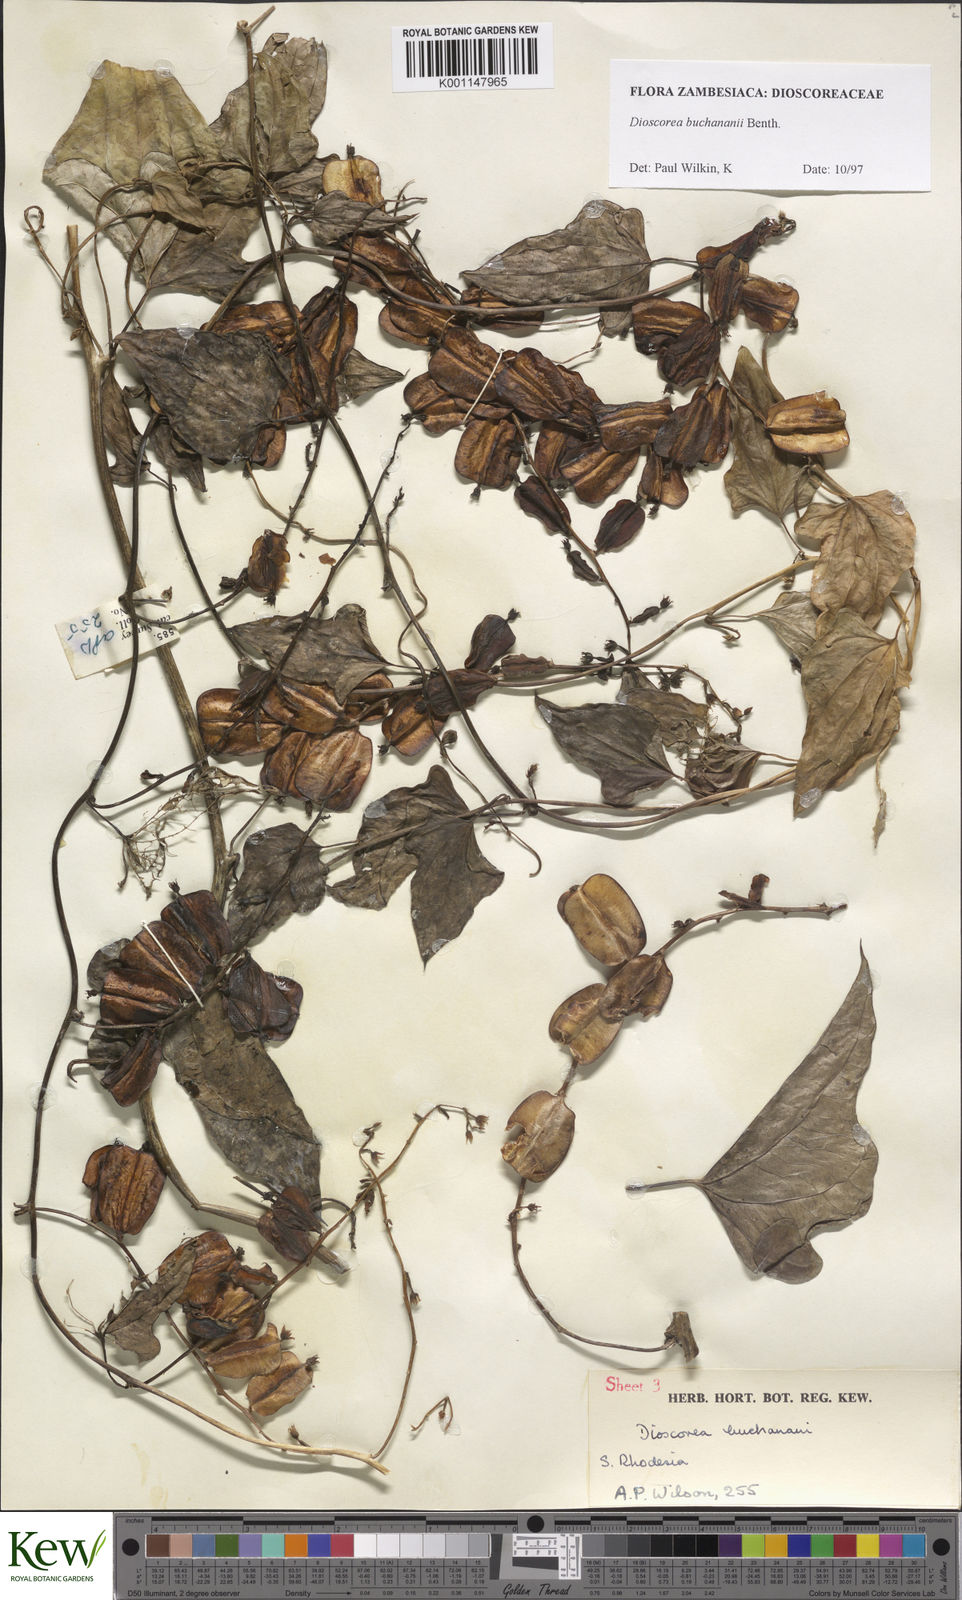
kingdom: Plantae
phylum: Tracheophyta
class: Liliopsida
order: Dioscoreales
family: Dioscoreaceae
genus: Dioscorea
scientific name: Dioscorea buchananii
